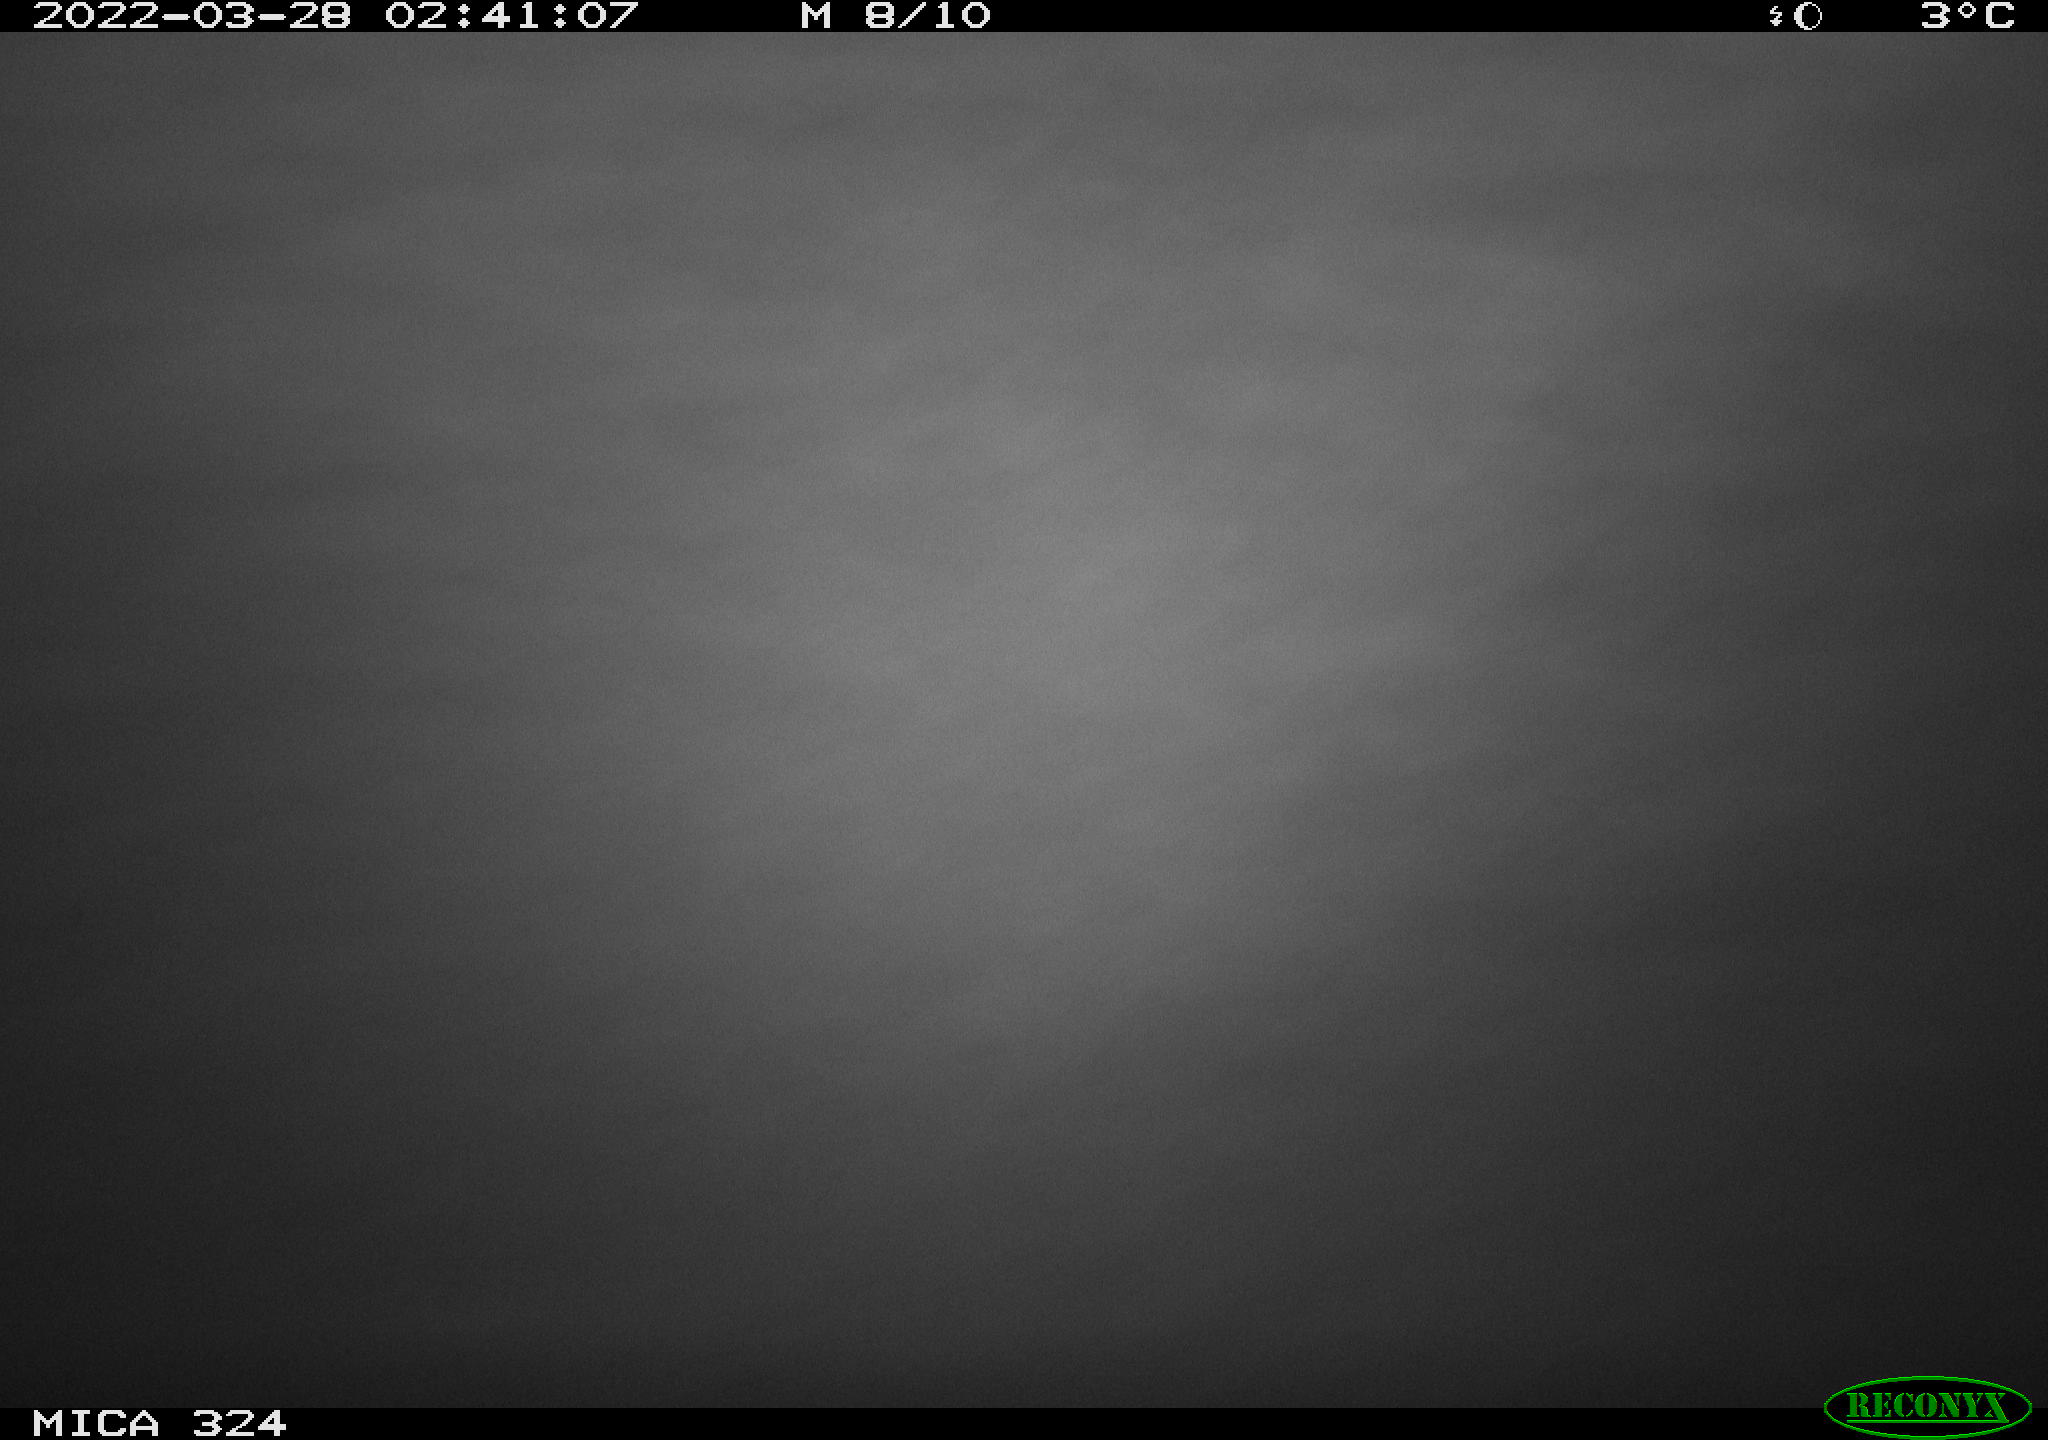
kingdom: Animalia
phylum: Chordata
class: Mammalia
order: Rodentia
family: Cricetidae
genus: Ondatra
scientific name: Ondatra zibethicus
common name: Muskrat
